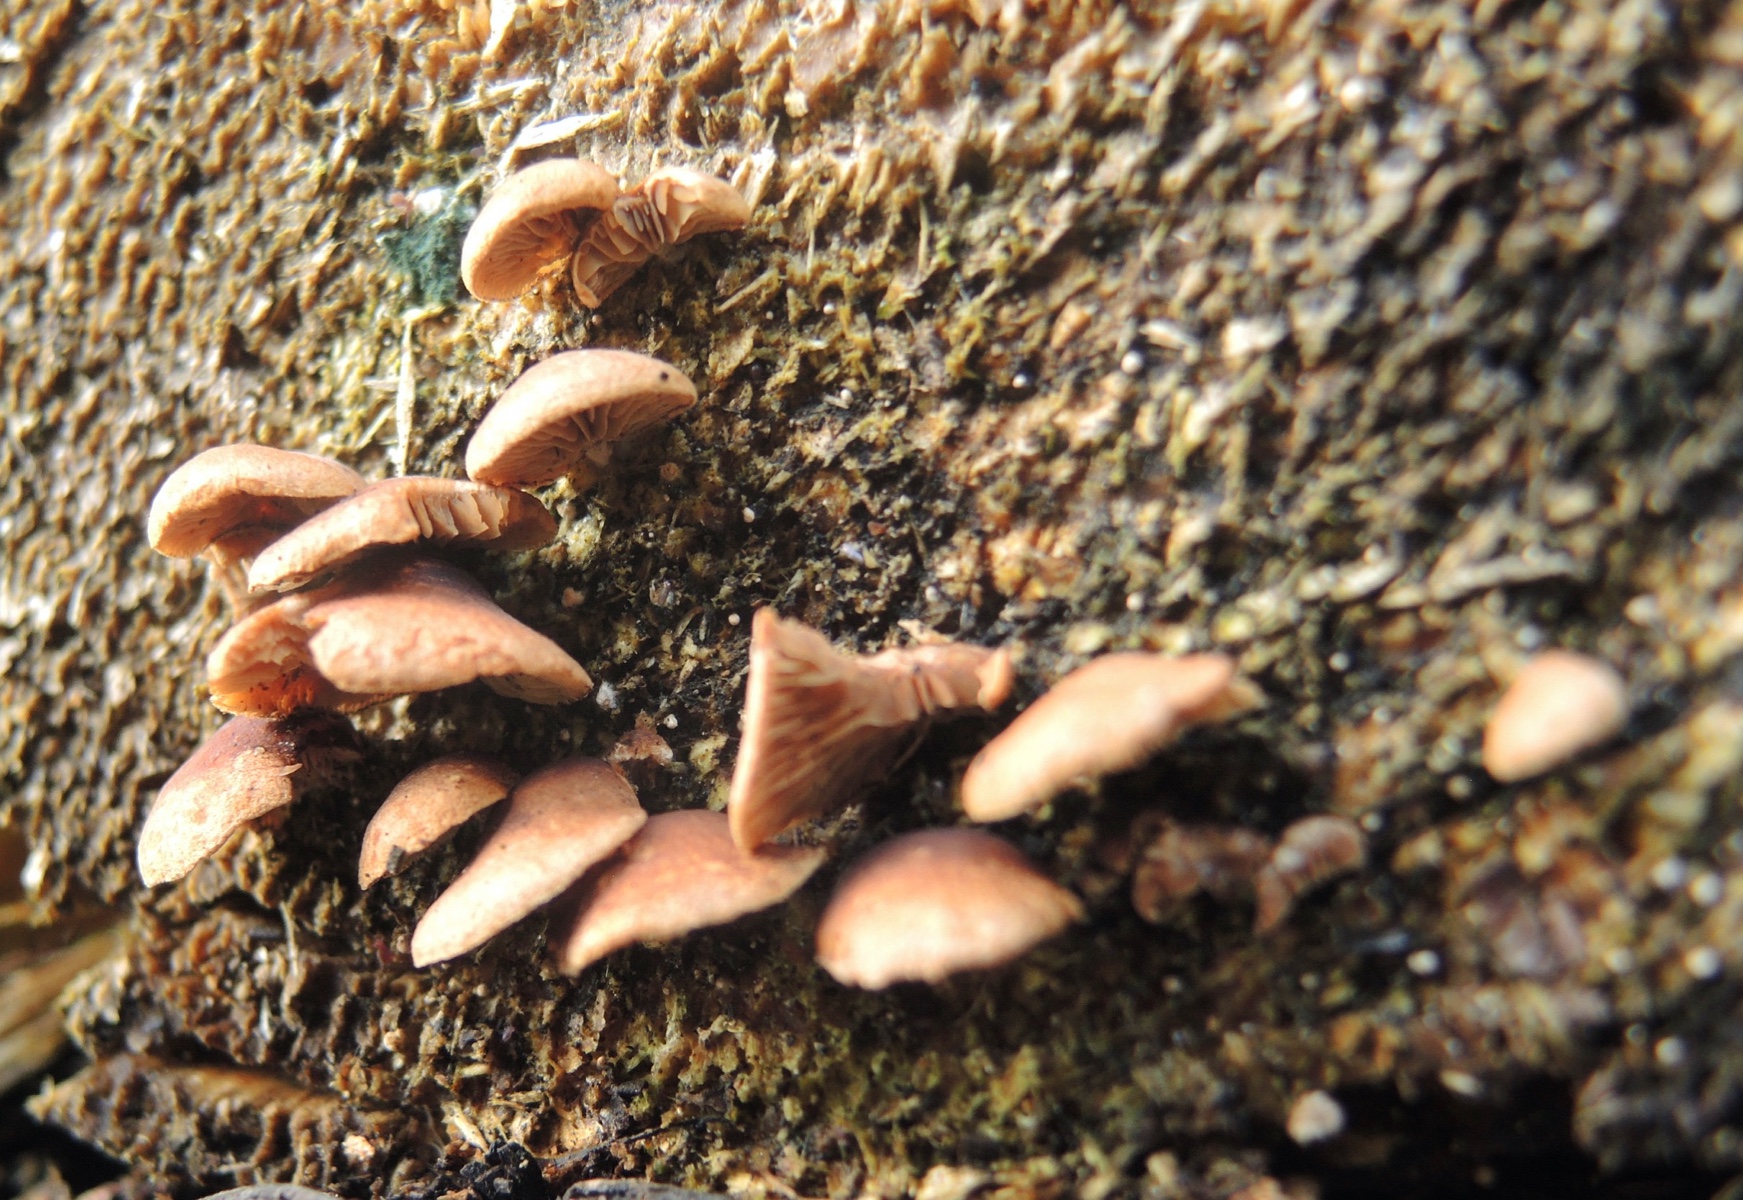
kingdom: Fungi
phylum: Basidiomycota
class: Agaricomycetes
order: Agaricales
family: Strophariaceae
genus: Deconica
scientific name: Deconica horizontalis
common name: ved-stråhat
